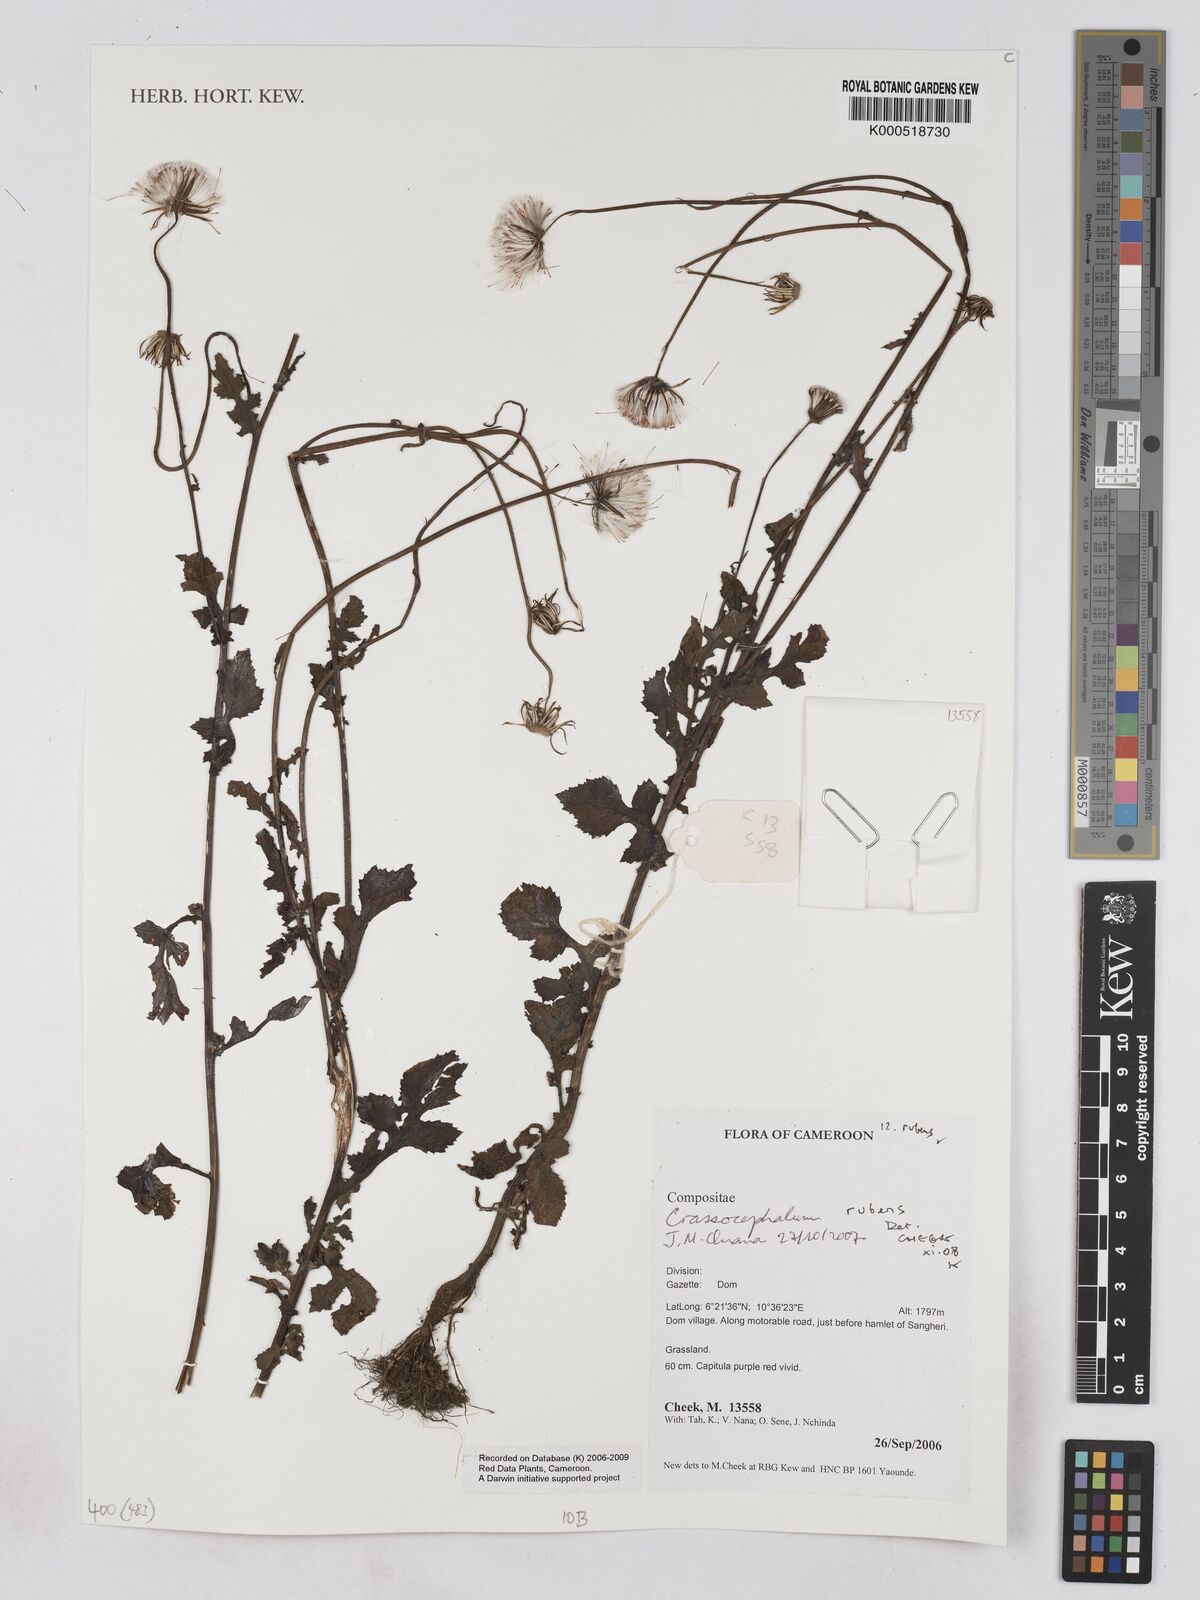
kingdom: Plantae
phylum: Tracheophyta
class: Magnoliopsida
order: Asterales
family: Asteraceae
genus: Crassocephalum
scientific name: Crassocephalum rubens
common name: Yoruban bologi
